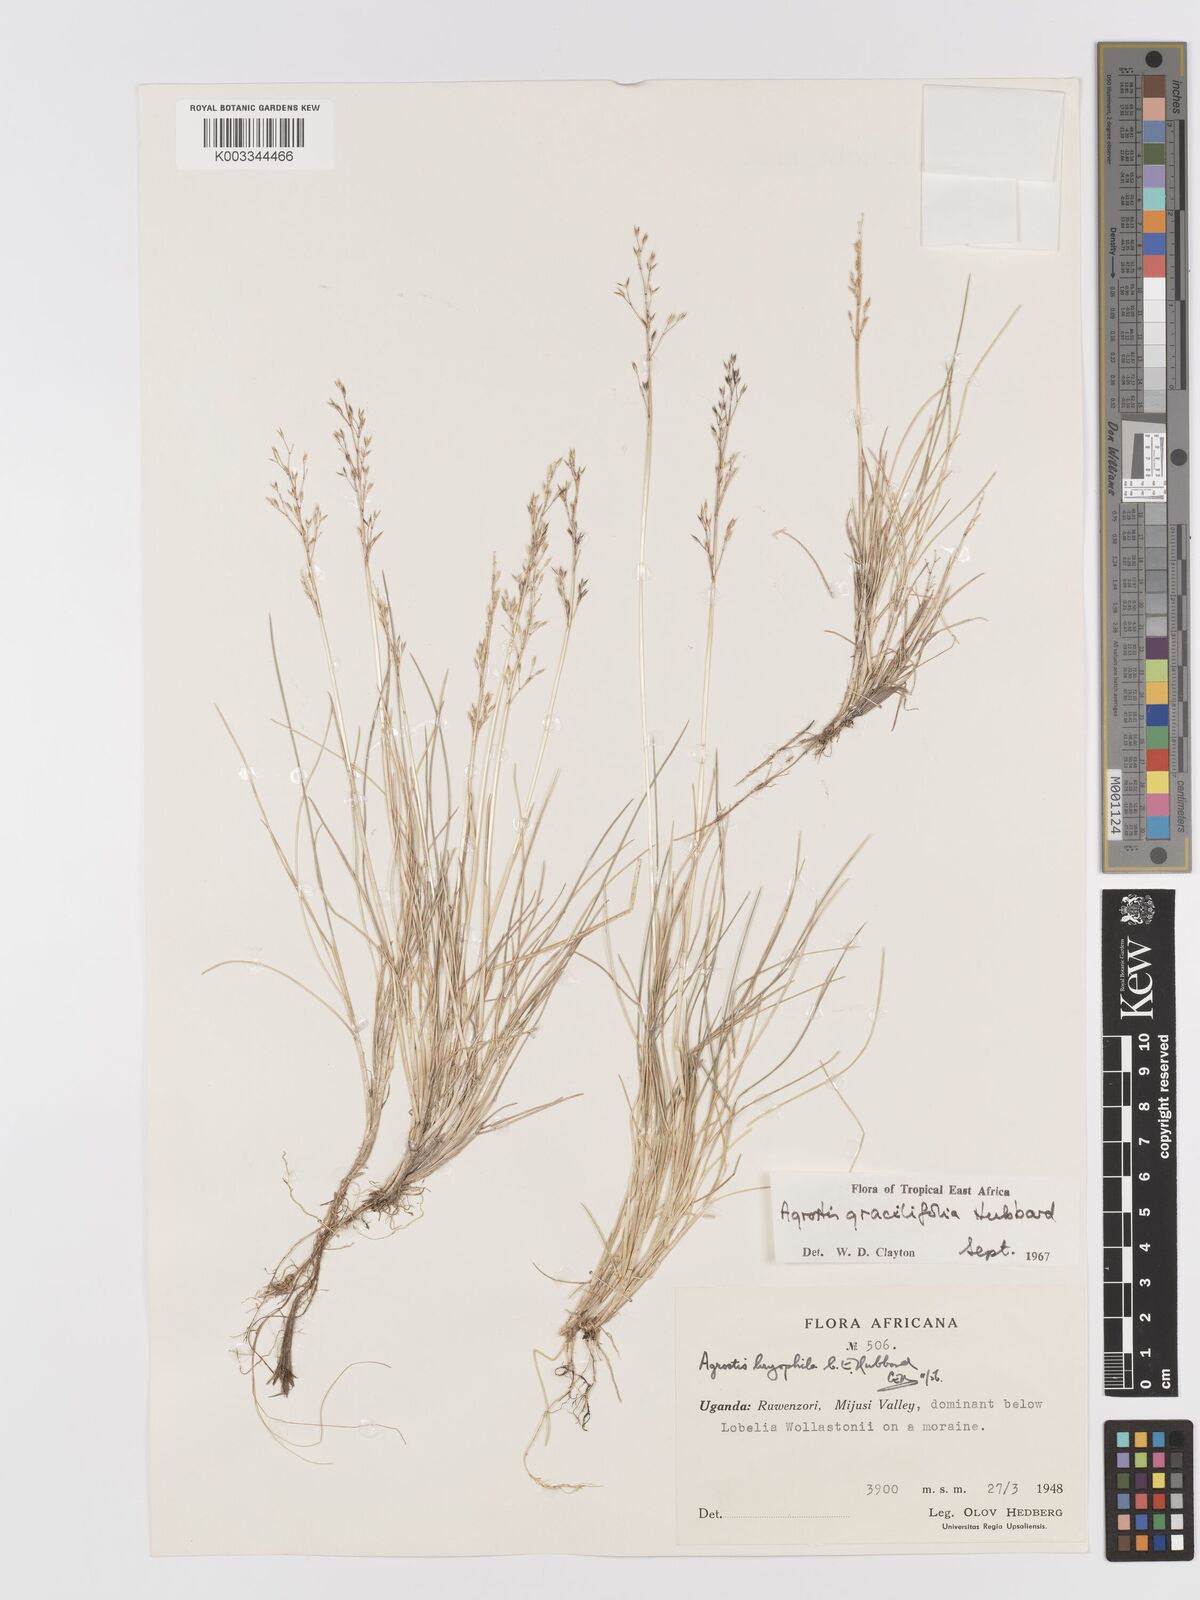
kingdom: Plantae
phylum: Tracheophyta
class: Liliopsida
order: Poales
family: Poaceae
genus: Agrostis
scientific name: Agrostis gracilifolia
